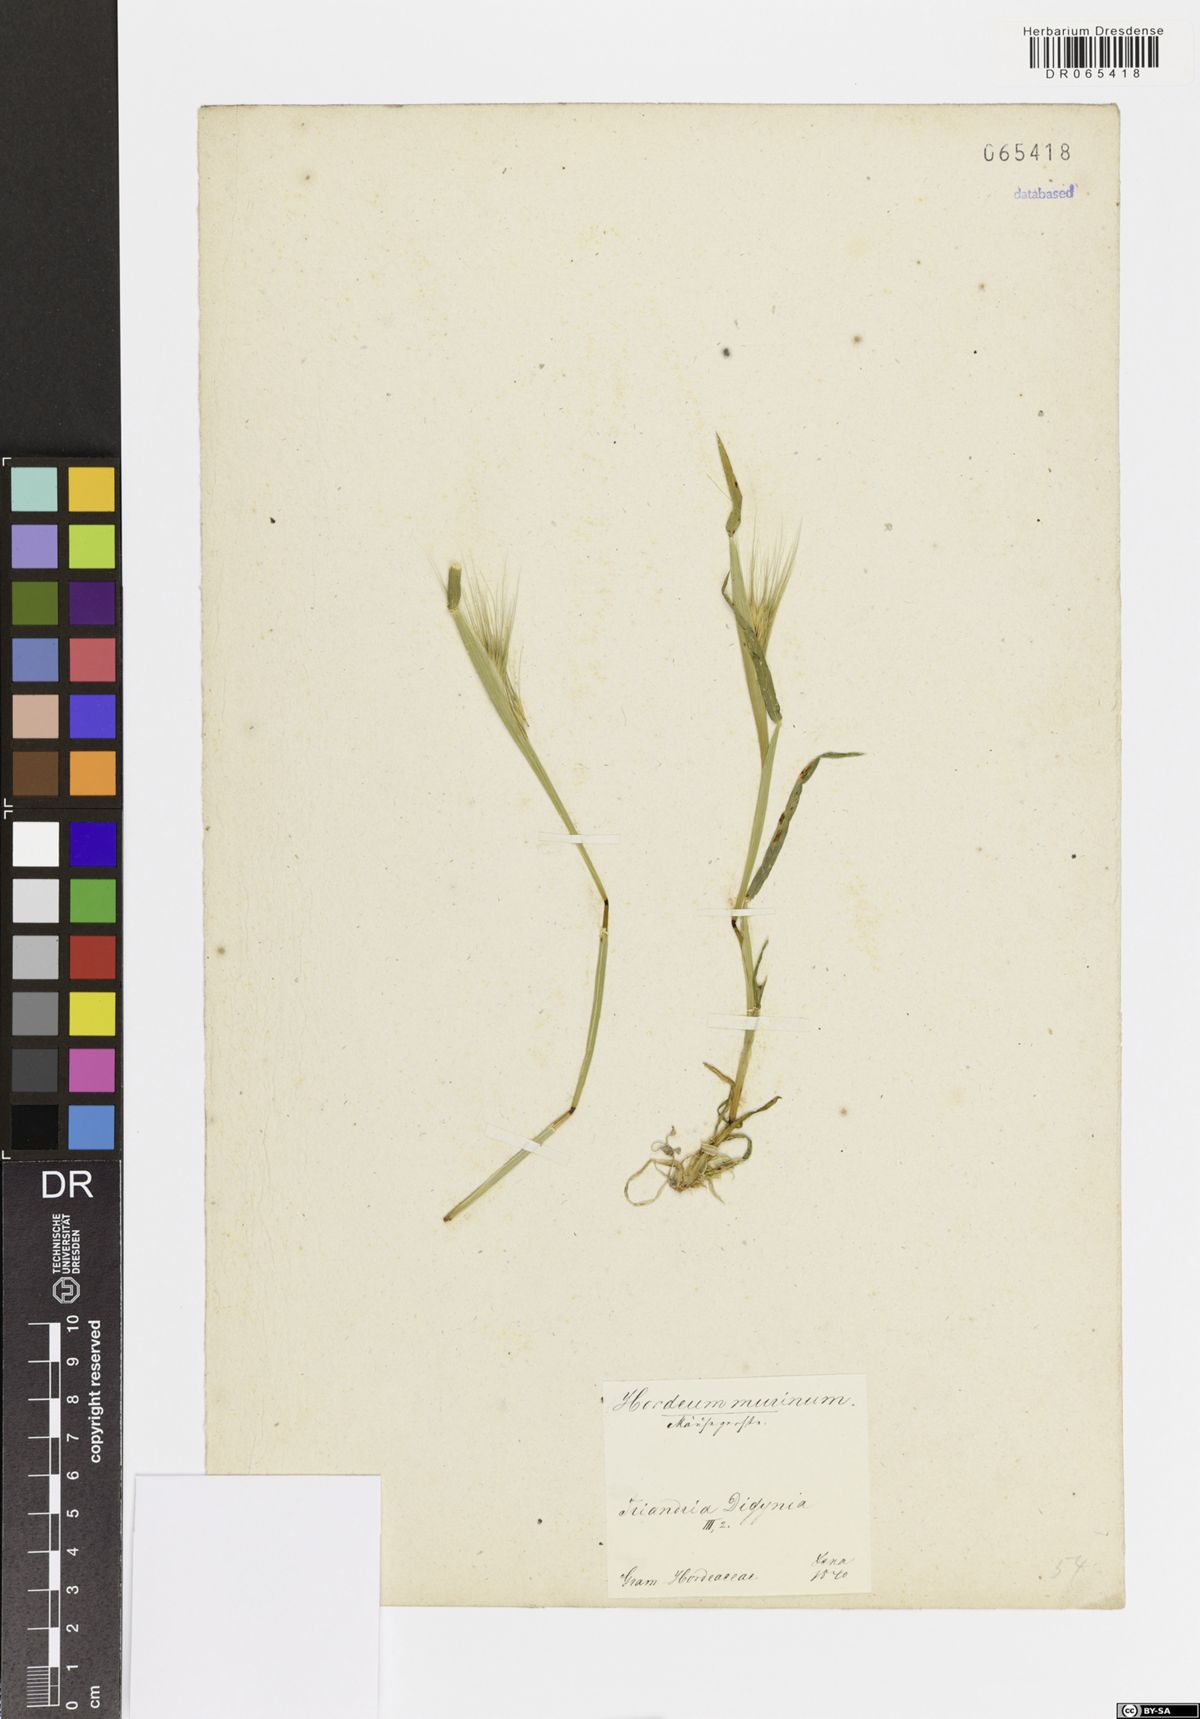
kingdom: Plantae
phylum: Tracheophyta
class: Liliopsida
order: Poales
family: Poaceae
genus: Hordeum
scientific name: Hordeum murinum
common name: Wall barley
